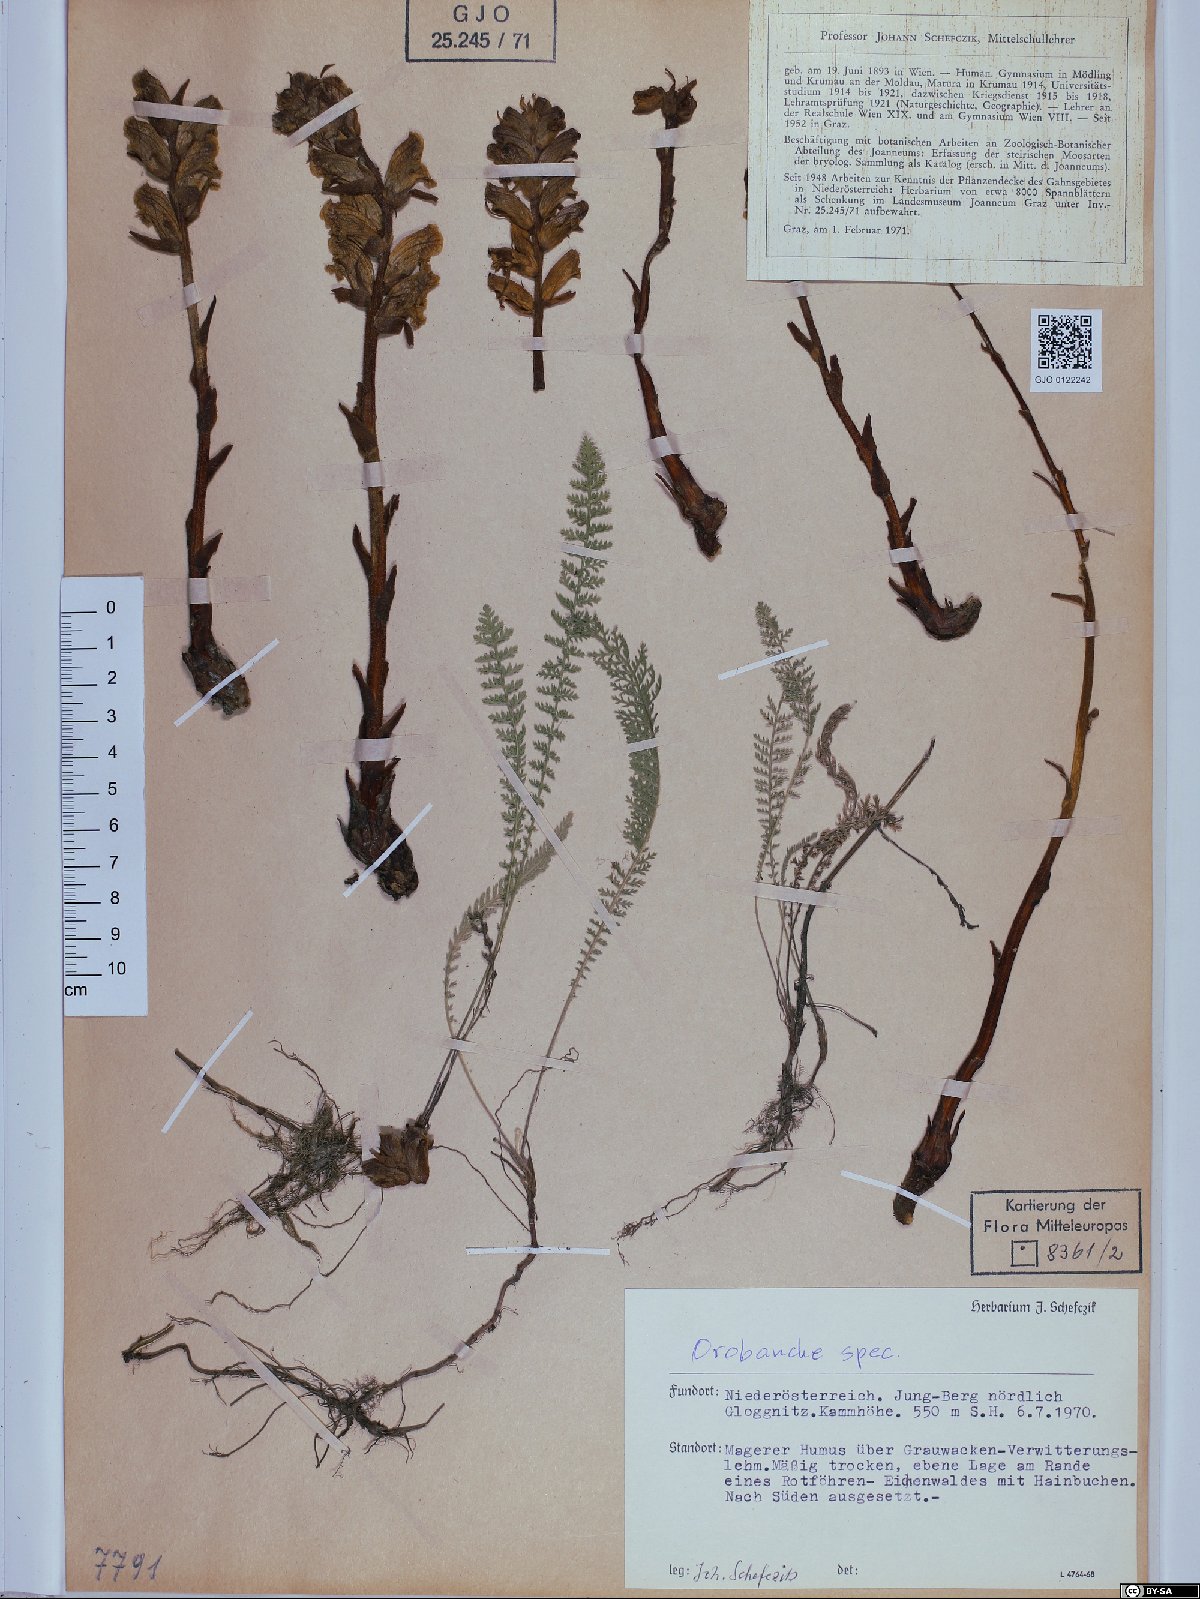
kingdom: Plantae
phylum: Tracheophyta
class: Magnoliopsida
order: Lamiales
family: Orobanchaceae
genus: Orobanche
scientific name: Orobanche
